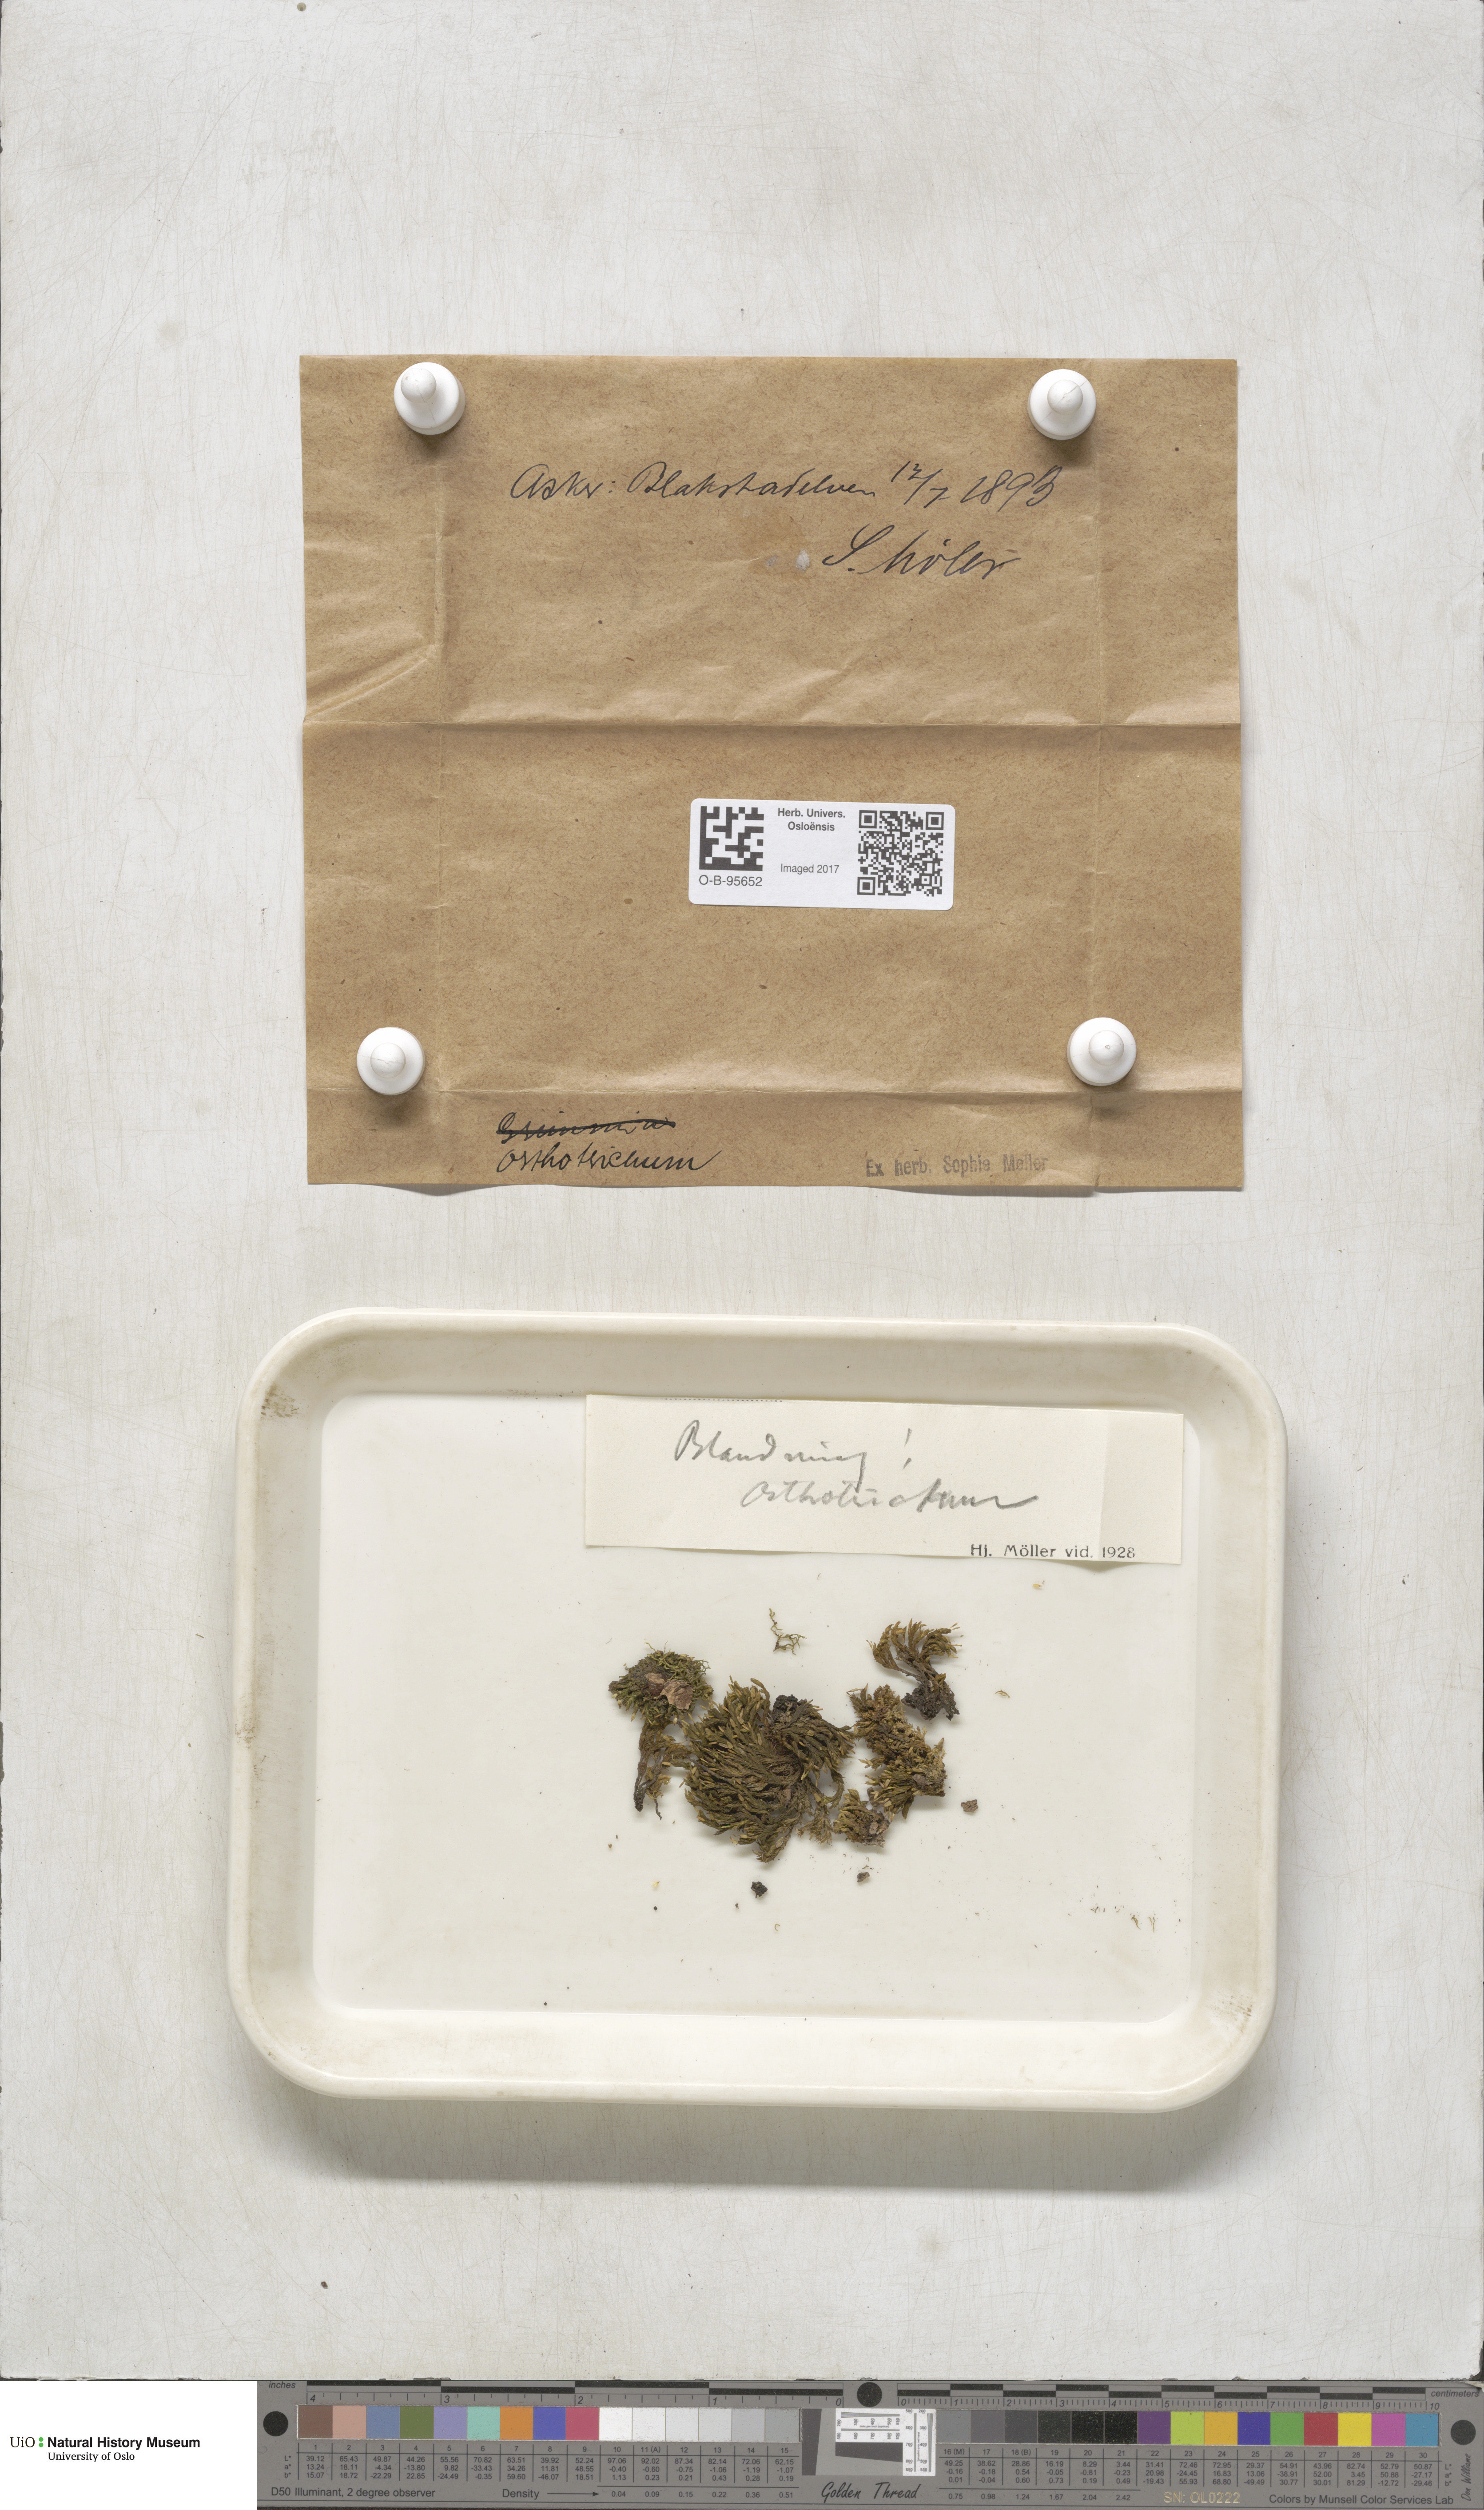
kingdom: Plantae
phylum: Bryophyta
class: Bryopsida
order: Orthotrichales
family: Orthotrichaceae
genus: Orthotrichum
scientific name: Orthotrichum
